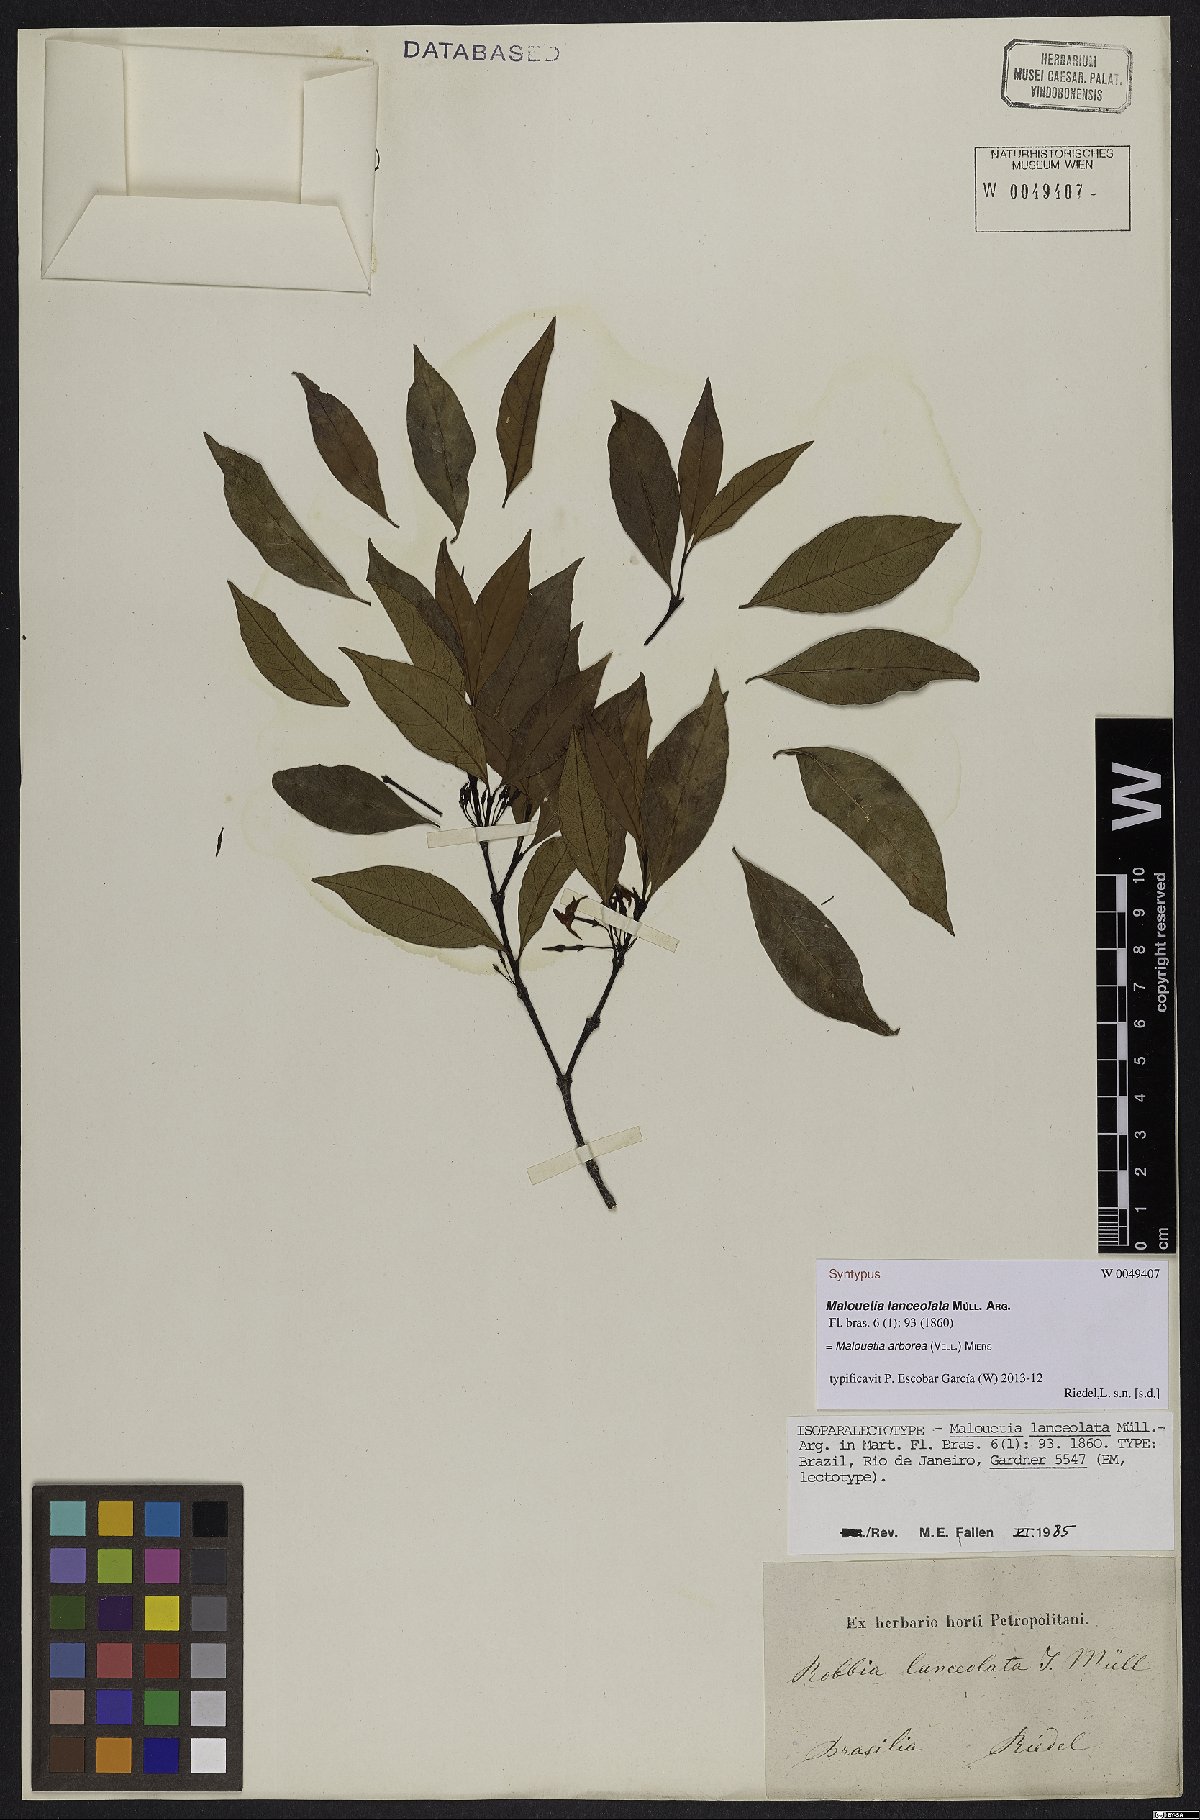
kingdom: Plantae
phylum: Tracheophyta
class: Magnoliopsida
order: Gentianales
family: Apocynaceae
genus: Malouetia
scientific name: Malouetia cestroides
